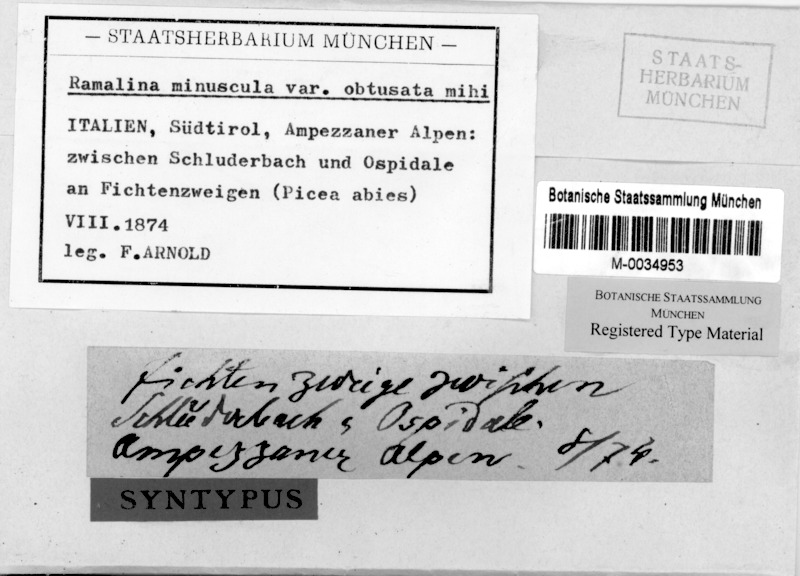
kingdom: Fungi
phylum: Ascomycota
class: Lecanoromycetes
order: Lecanorales
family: Ramalinaceae
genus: Ramalina
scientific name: Ramalina obtusata
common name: Hooded ribbon lichen
